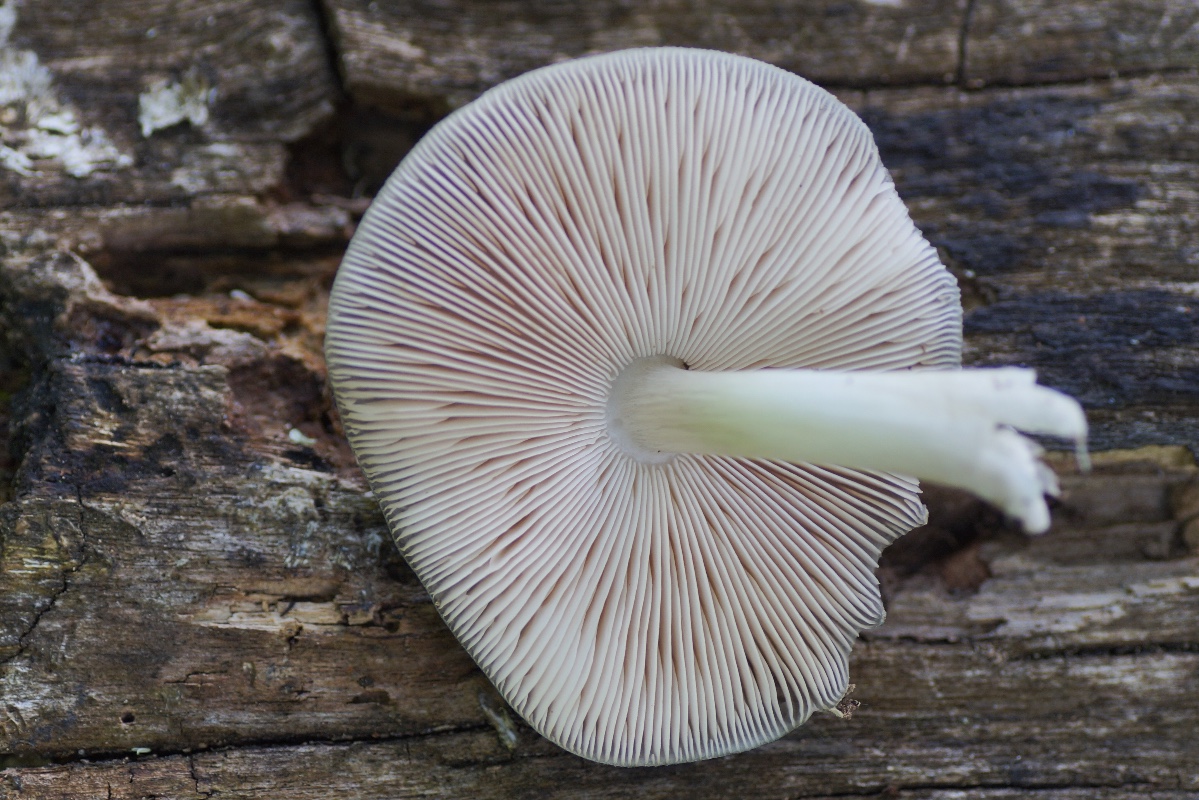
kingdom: Fungi
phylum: Basidiomycota
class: Agaricomycetes
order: Agaricales
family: Pluteaceae
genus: Pluteus
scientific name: Pluteus salicinus
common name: stiv skærmhat
